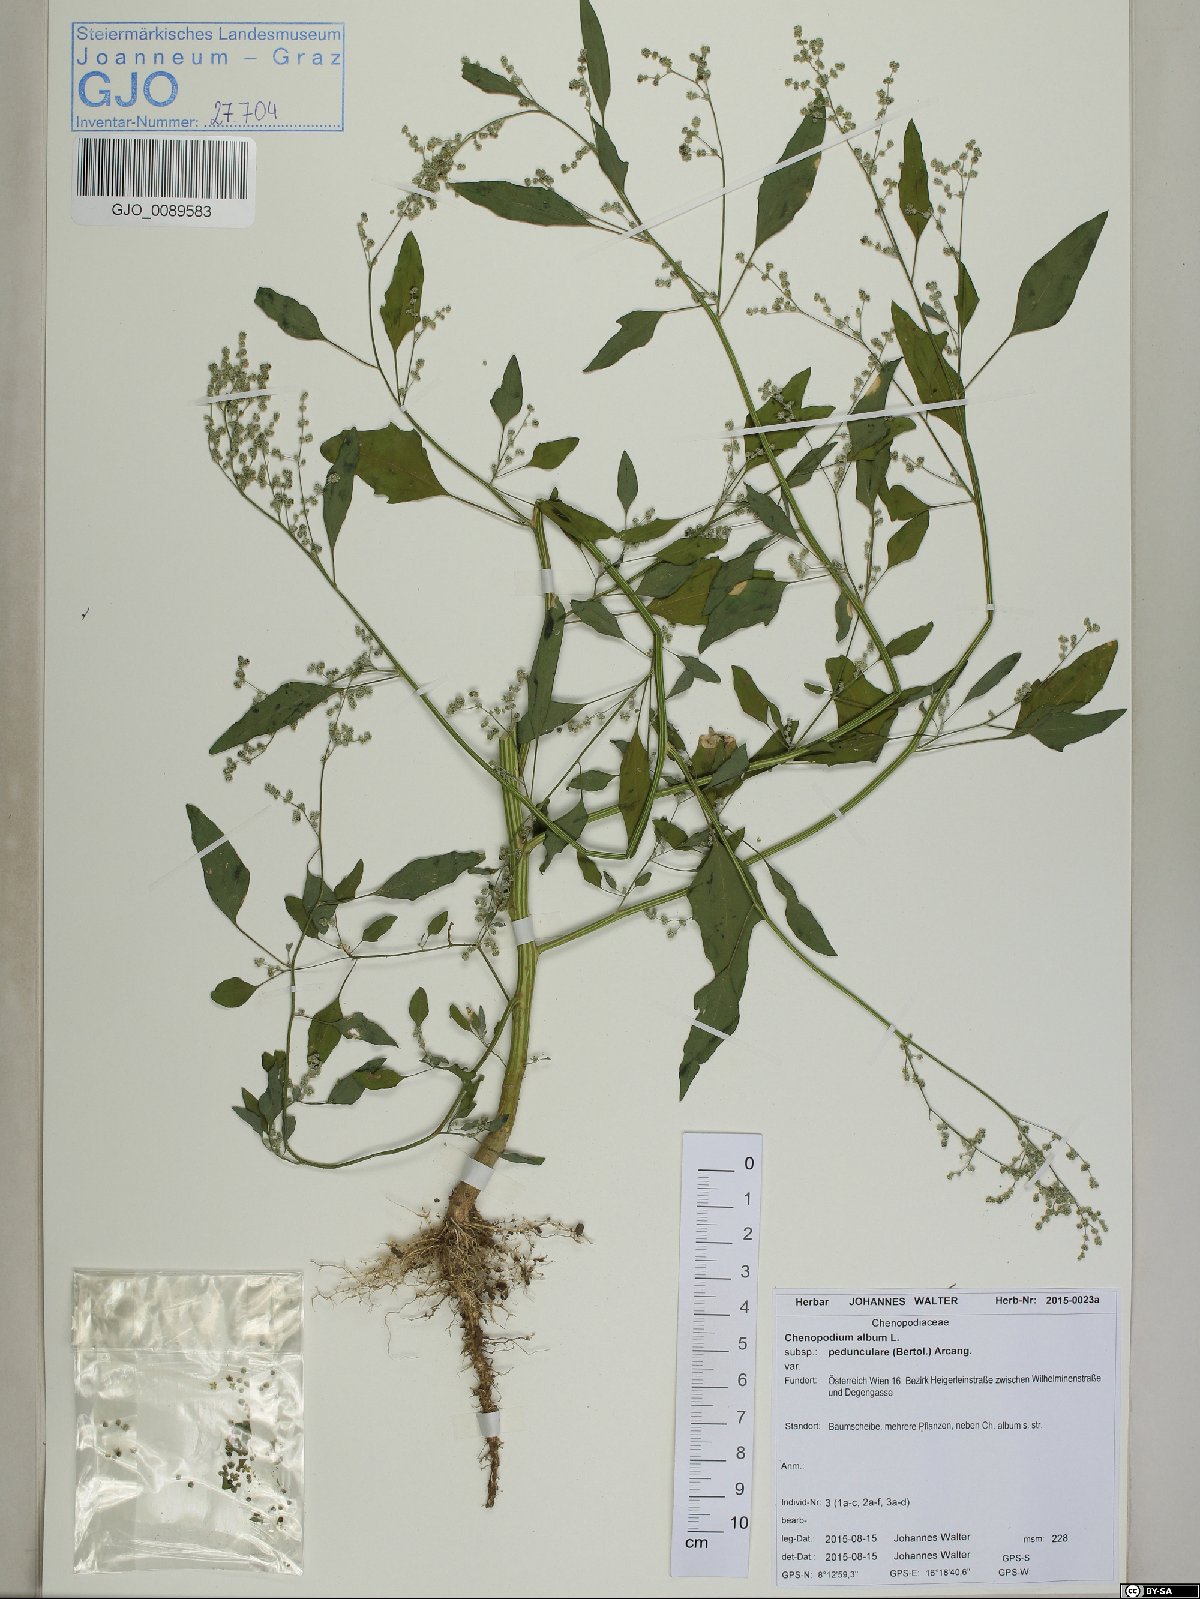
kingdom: Plantae
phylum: Tracheophyta
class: Magnoliopsida
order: Caryophyllales
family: Amaranthaceae
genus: Chenopodium
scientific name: Chenopodium album
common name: Fat-hen
